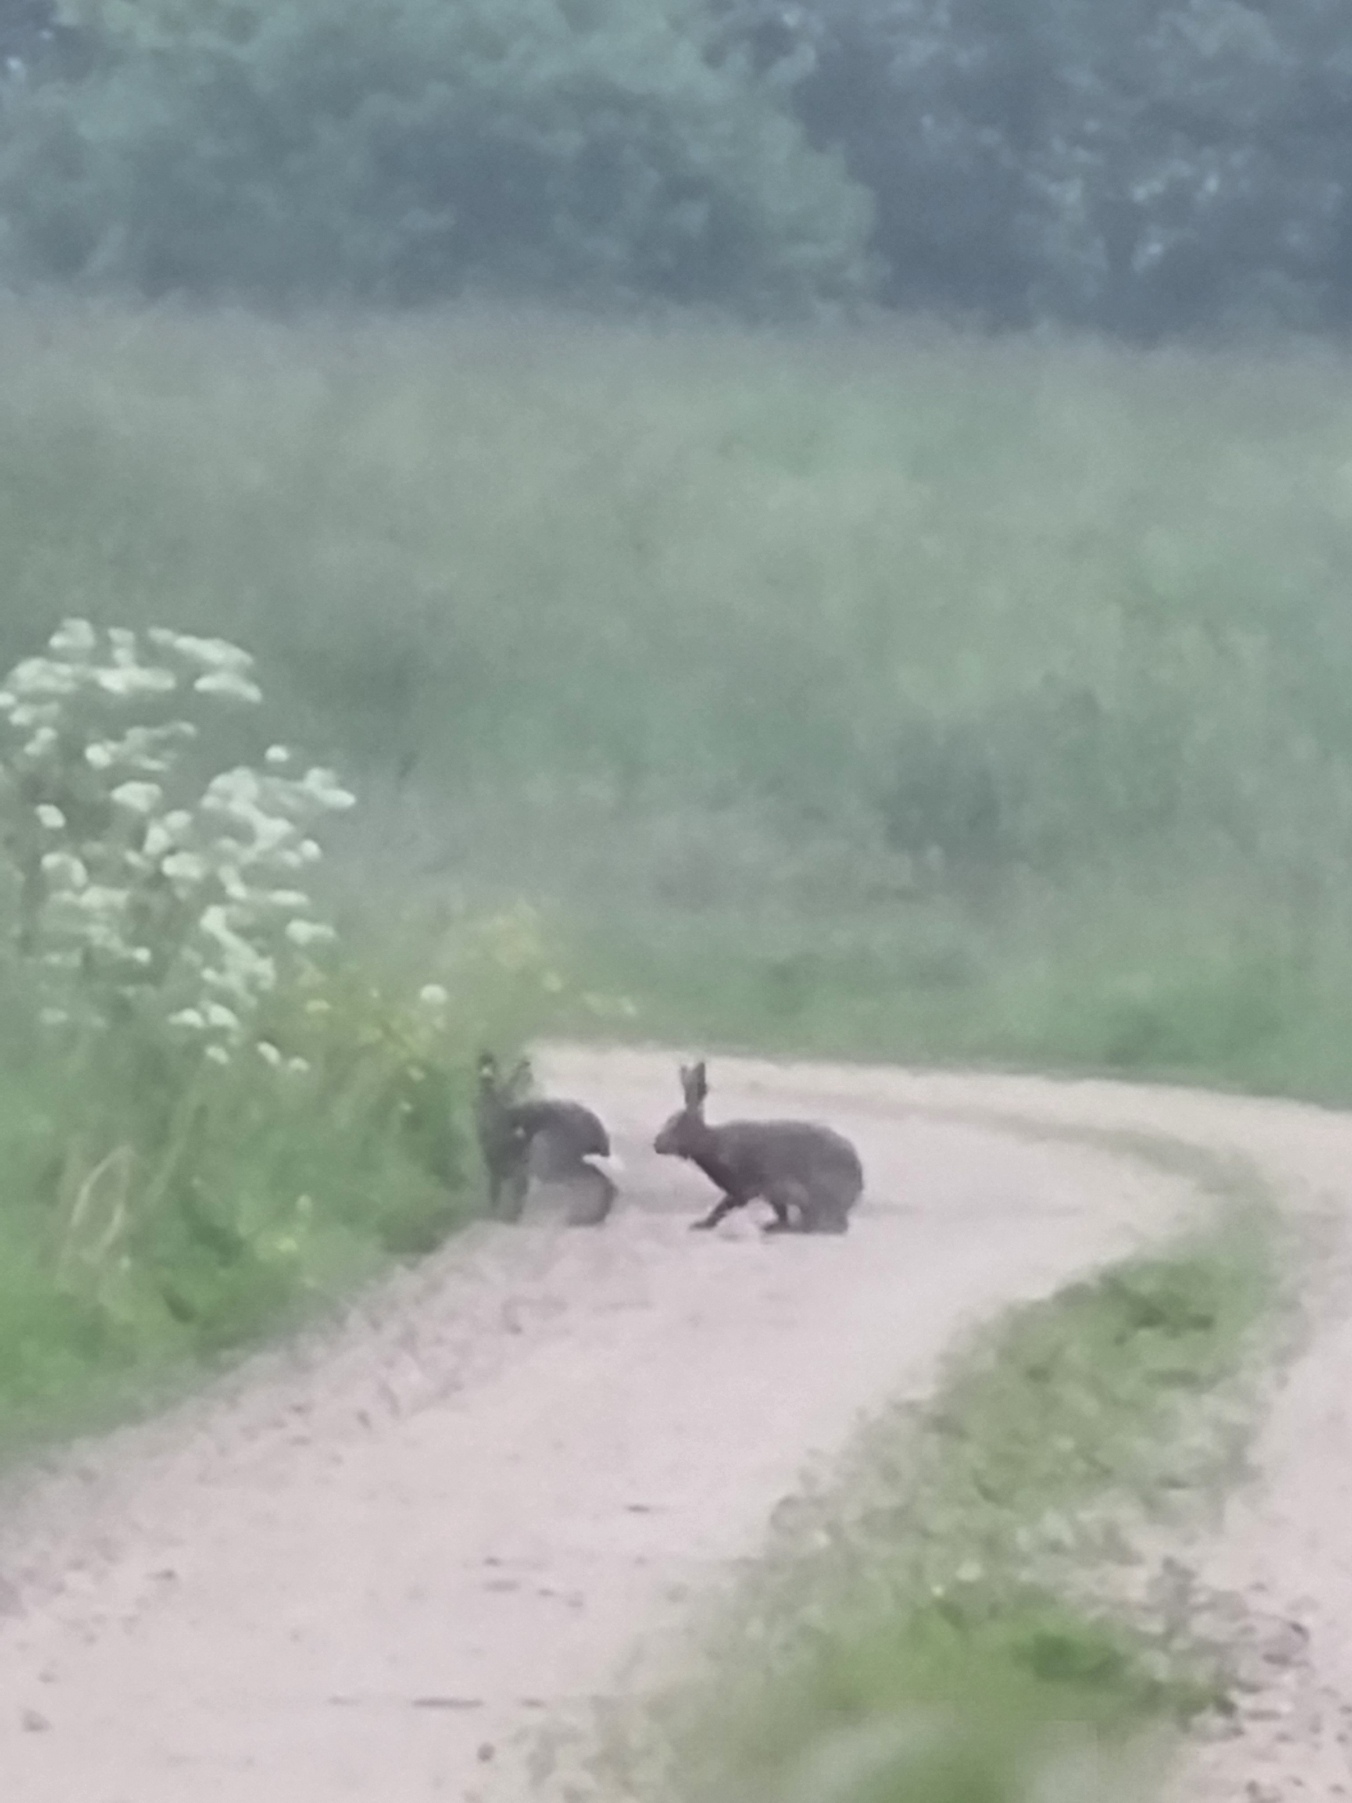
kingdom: Animalia
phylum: Chordata
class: Mammalia
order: Lagomorpha
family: Leporidae
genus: Lepus
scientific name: Lepus europaeus
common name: Hare
